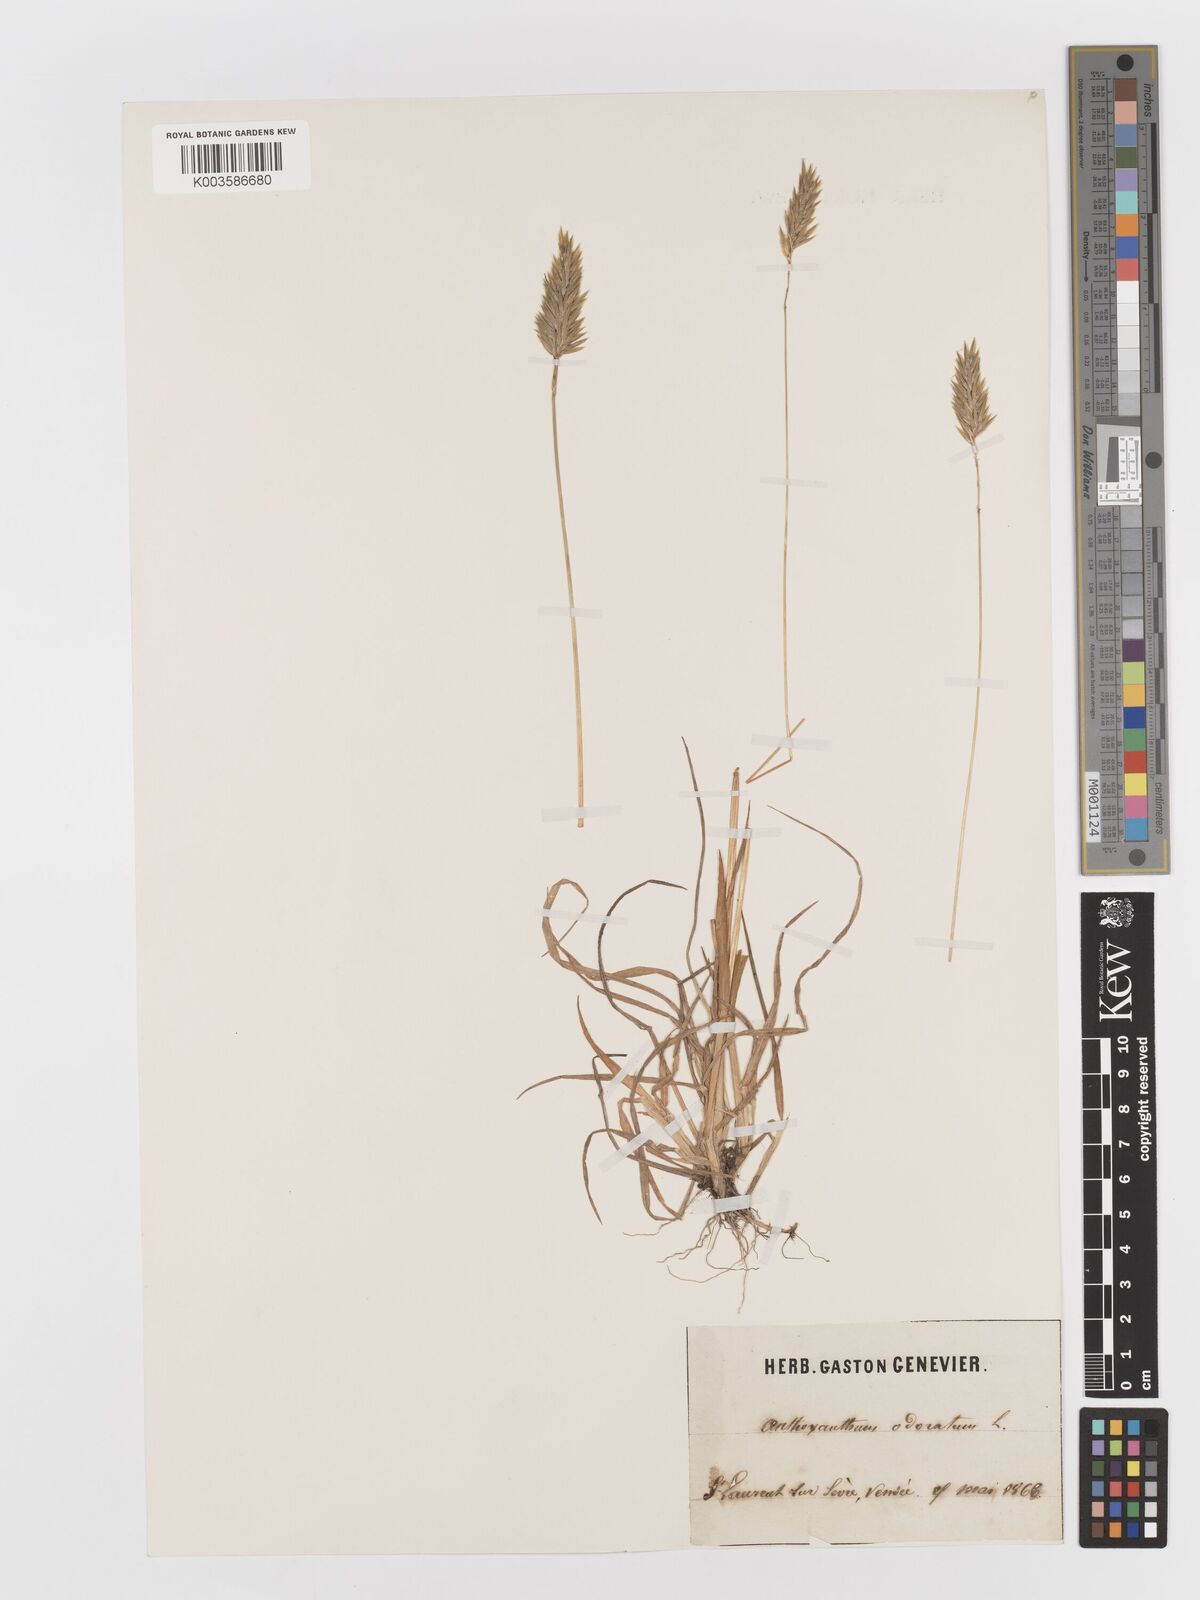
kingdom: Plantae
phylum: Tracheophyta
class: Liliopsida
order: Poales
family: Poaceae
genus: Anthoxanthum
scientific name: Anthoxanthum odoratum
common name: Sweet vernalgrass
